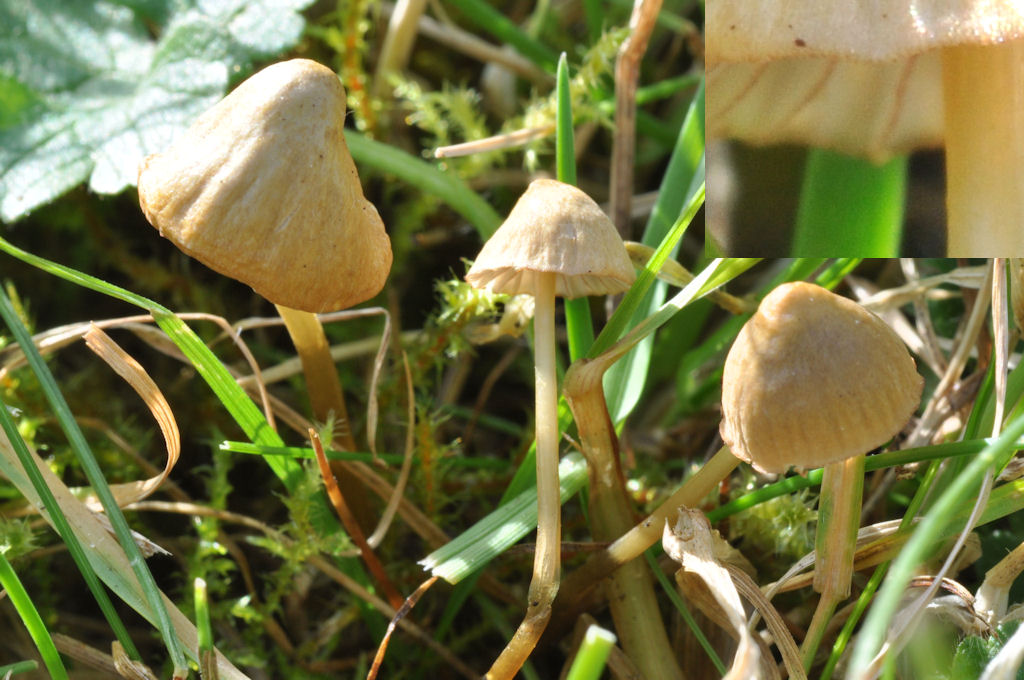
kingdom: Fungi
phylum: Basidiomycota
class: Agaricomycetes
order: Agaricales
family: Mycenaceae
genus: Mycena
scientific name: Mycena olivaceomarginata
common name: brunægget huesvamp
